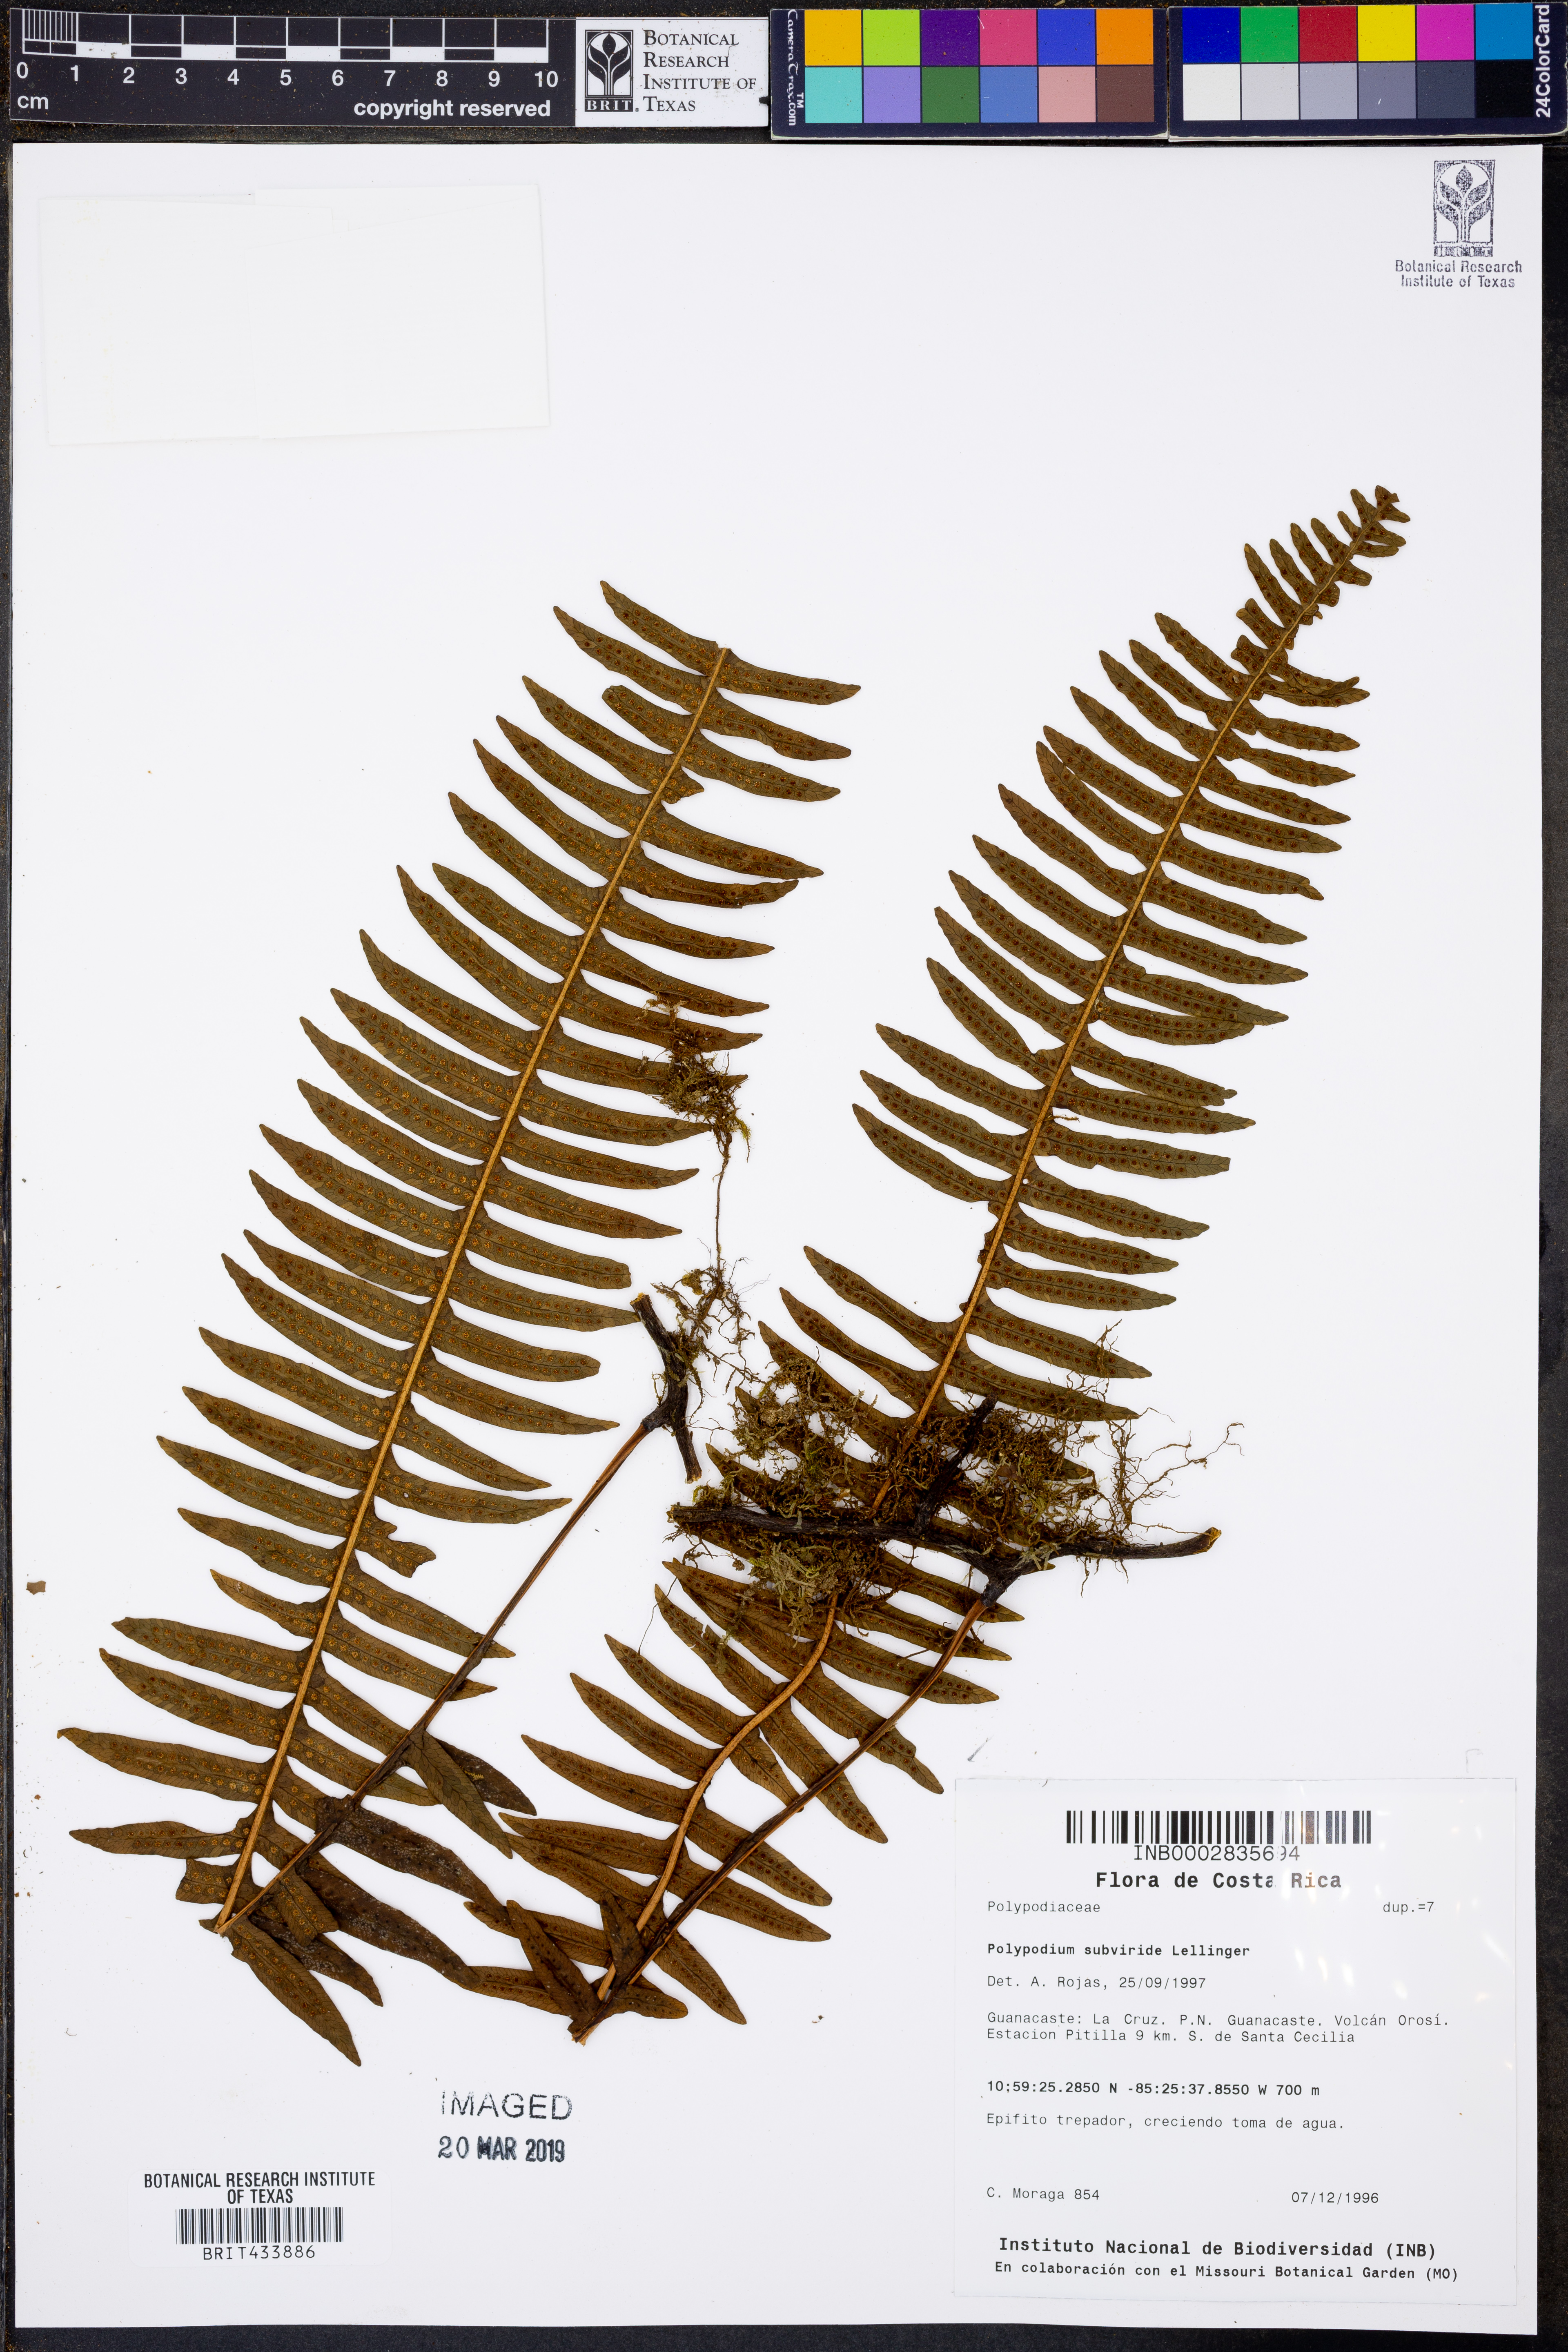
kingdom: Plantae
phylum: Tracheophyta
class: Polypodiopsida
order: Polypodiales
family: Polypodiaceae
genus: Serpocaulon
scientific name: Serpocaulon loriciforme
